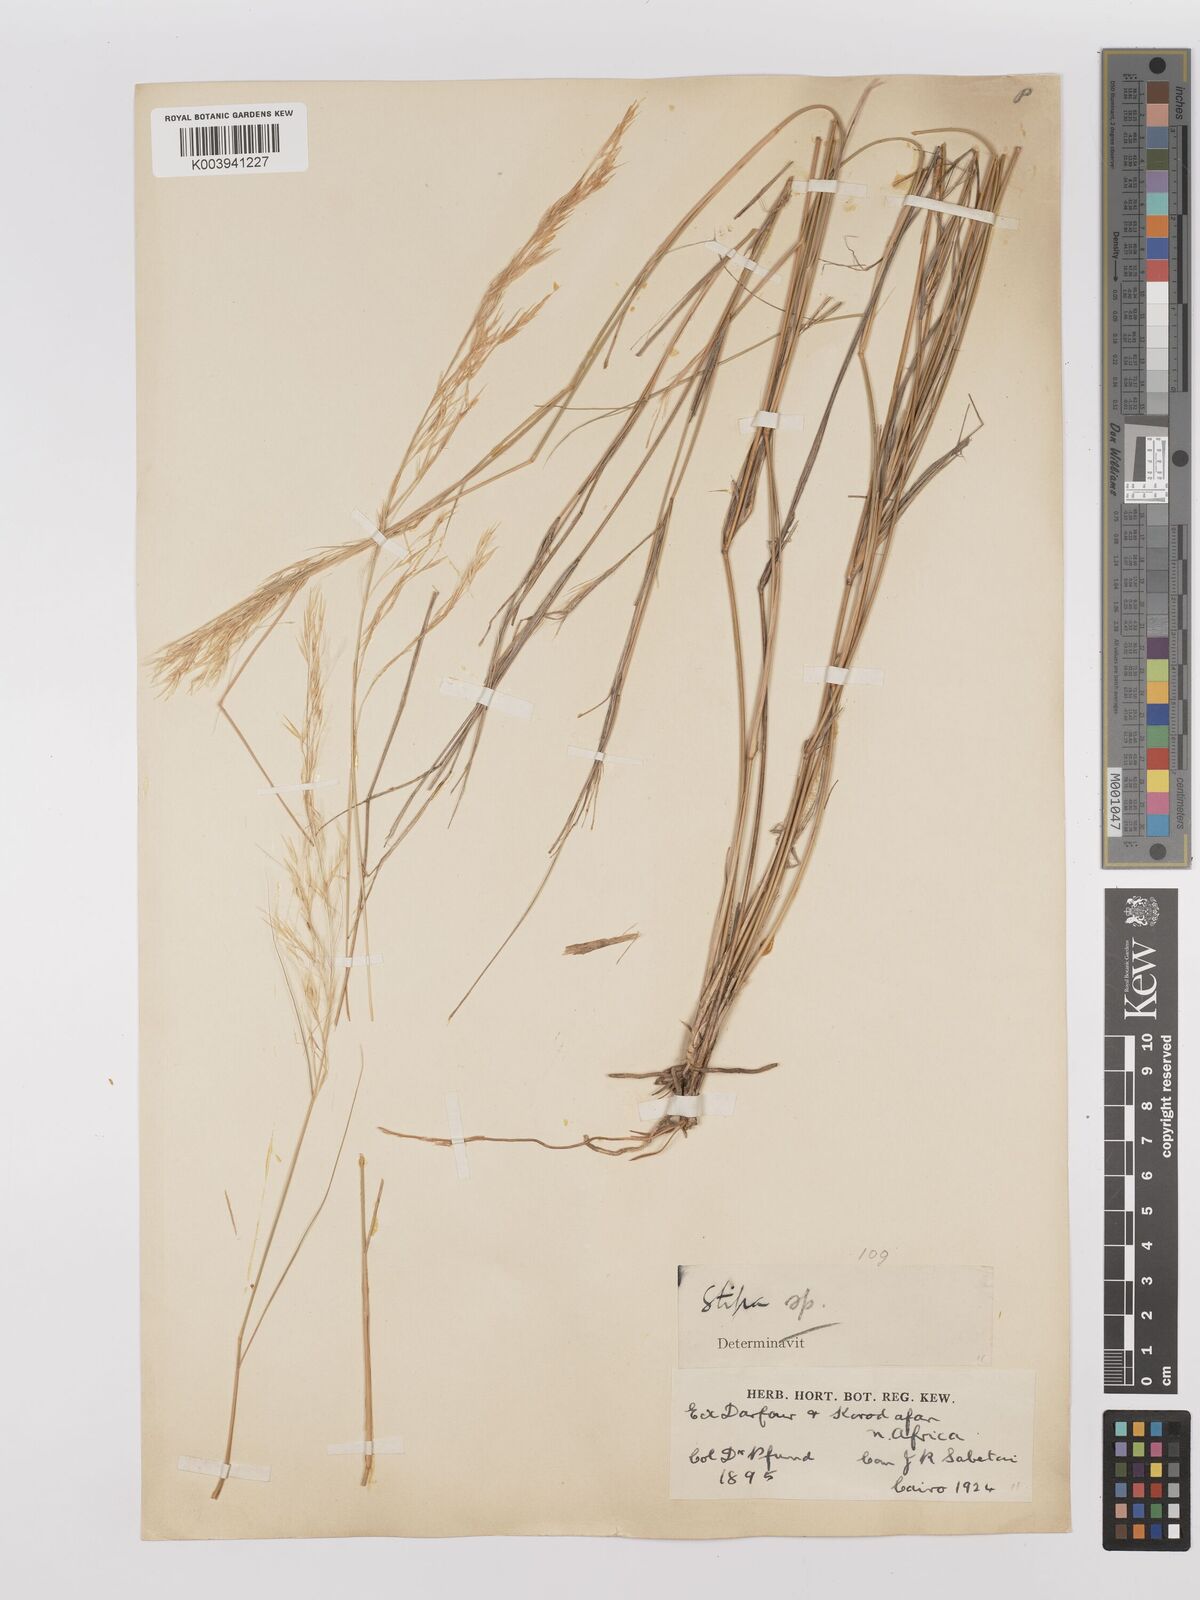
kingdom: Plantae
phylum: Tracheophyta
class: Liliopsida
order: Poales
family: Poaceae
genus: Stipagrostis
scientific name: Stipagrostis uniplumis
